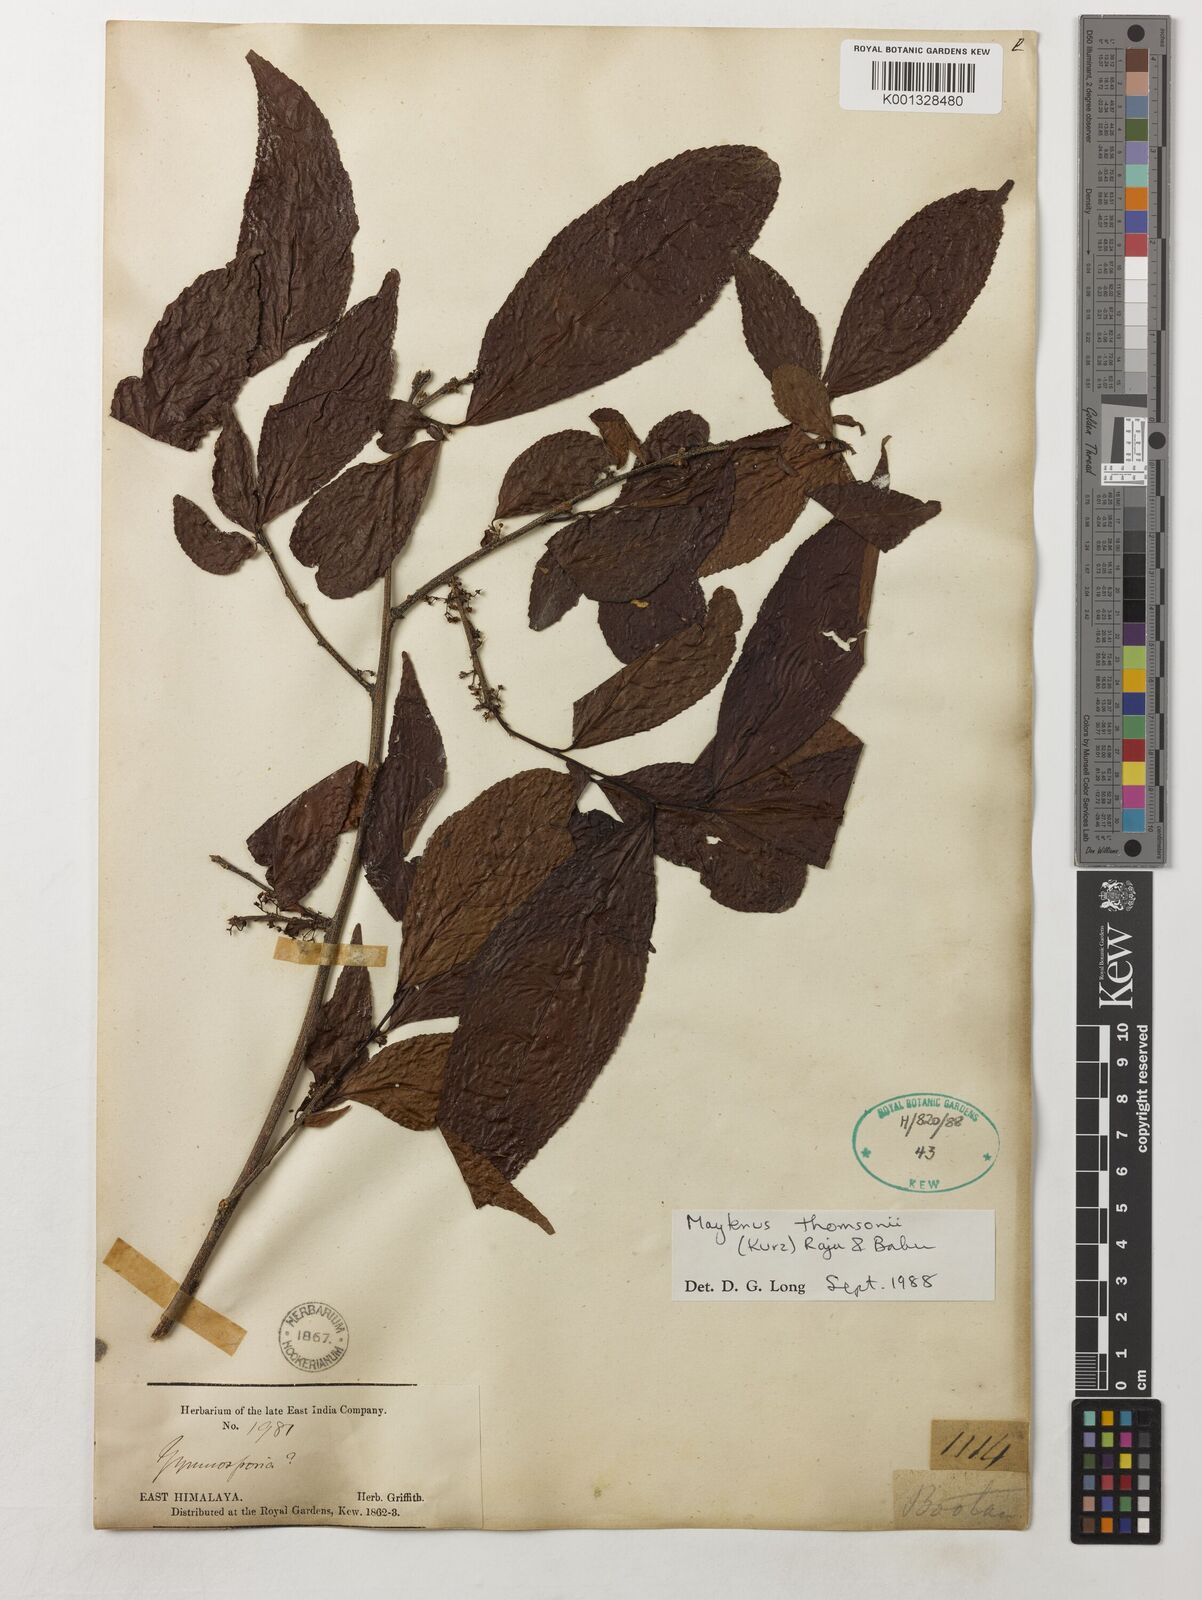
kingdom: Plantae
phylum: Tracheophyta
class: Magnoliopsida
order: Celastrales
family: Celastraceae
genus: Gymnosporia
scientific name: Gymnosporia thomsonii
